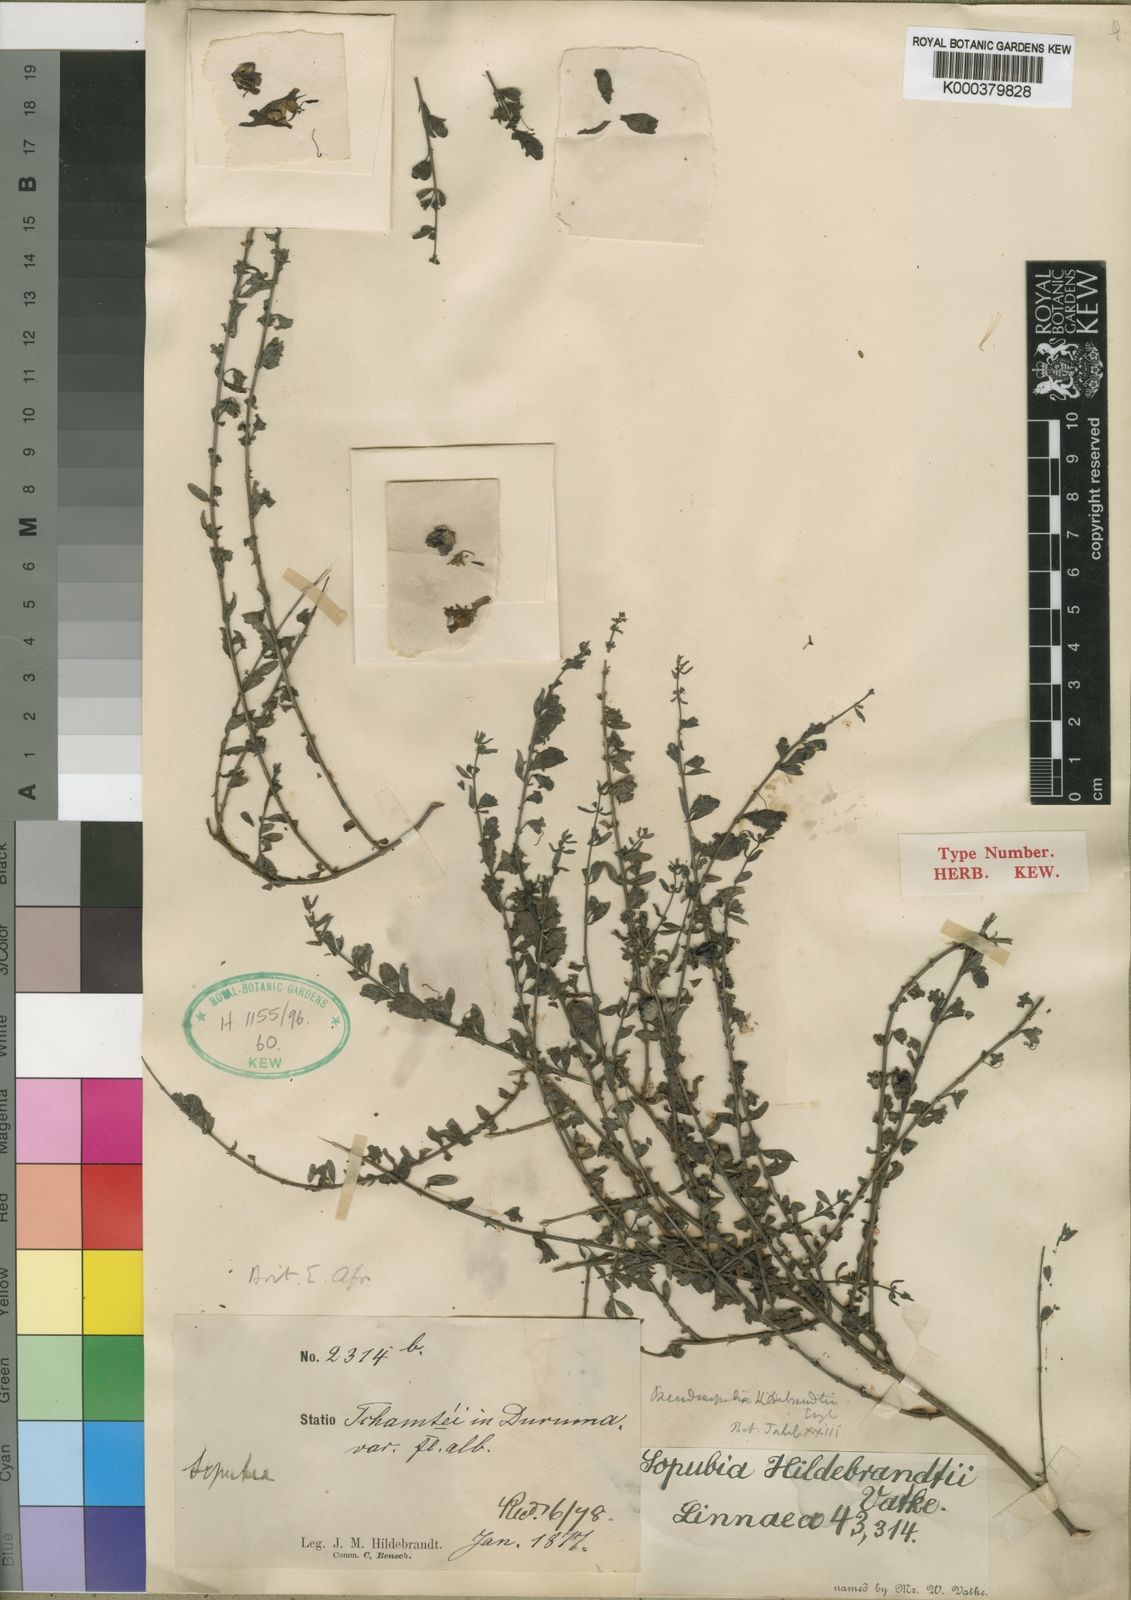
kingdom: Plantae
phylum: Tracheophyta
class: Magnoliopsida
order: Lamiales
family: Orobanchaceae
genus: Pseudosopubia
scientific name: Pseudosopubia hildebrandtii
